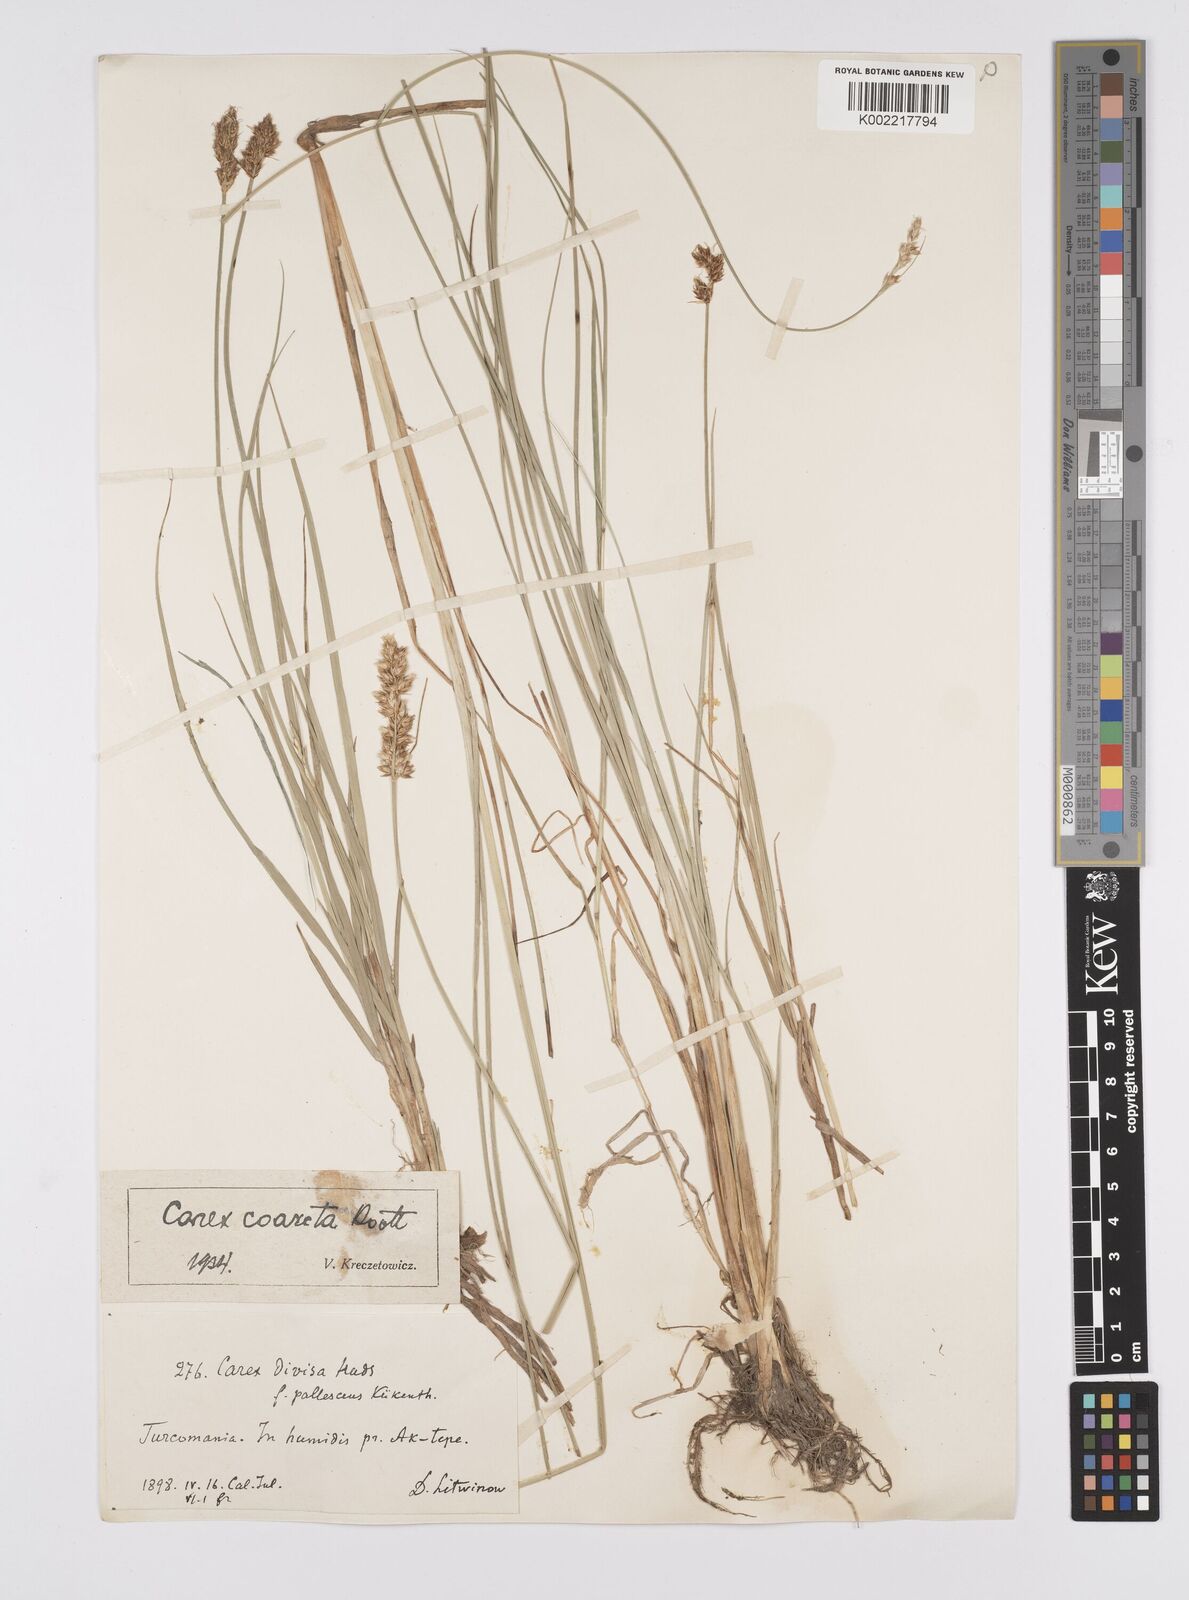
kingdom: Plantae
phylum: Tracheophyta
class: Liliopsida
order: Poales
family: Cyperaceae
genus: Carex
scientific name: Carex divisa
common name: Divided sedge
